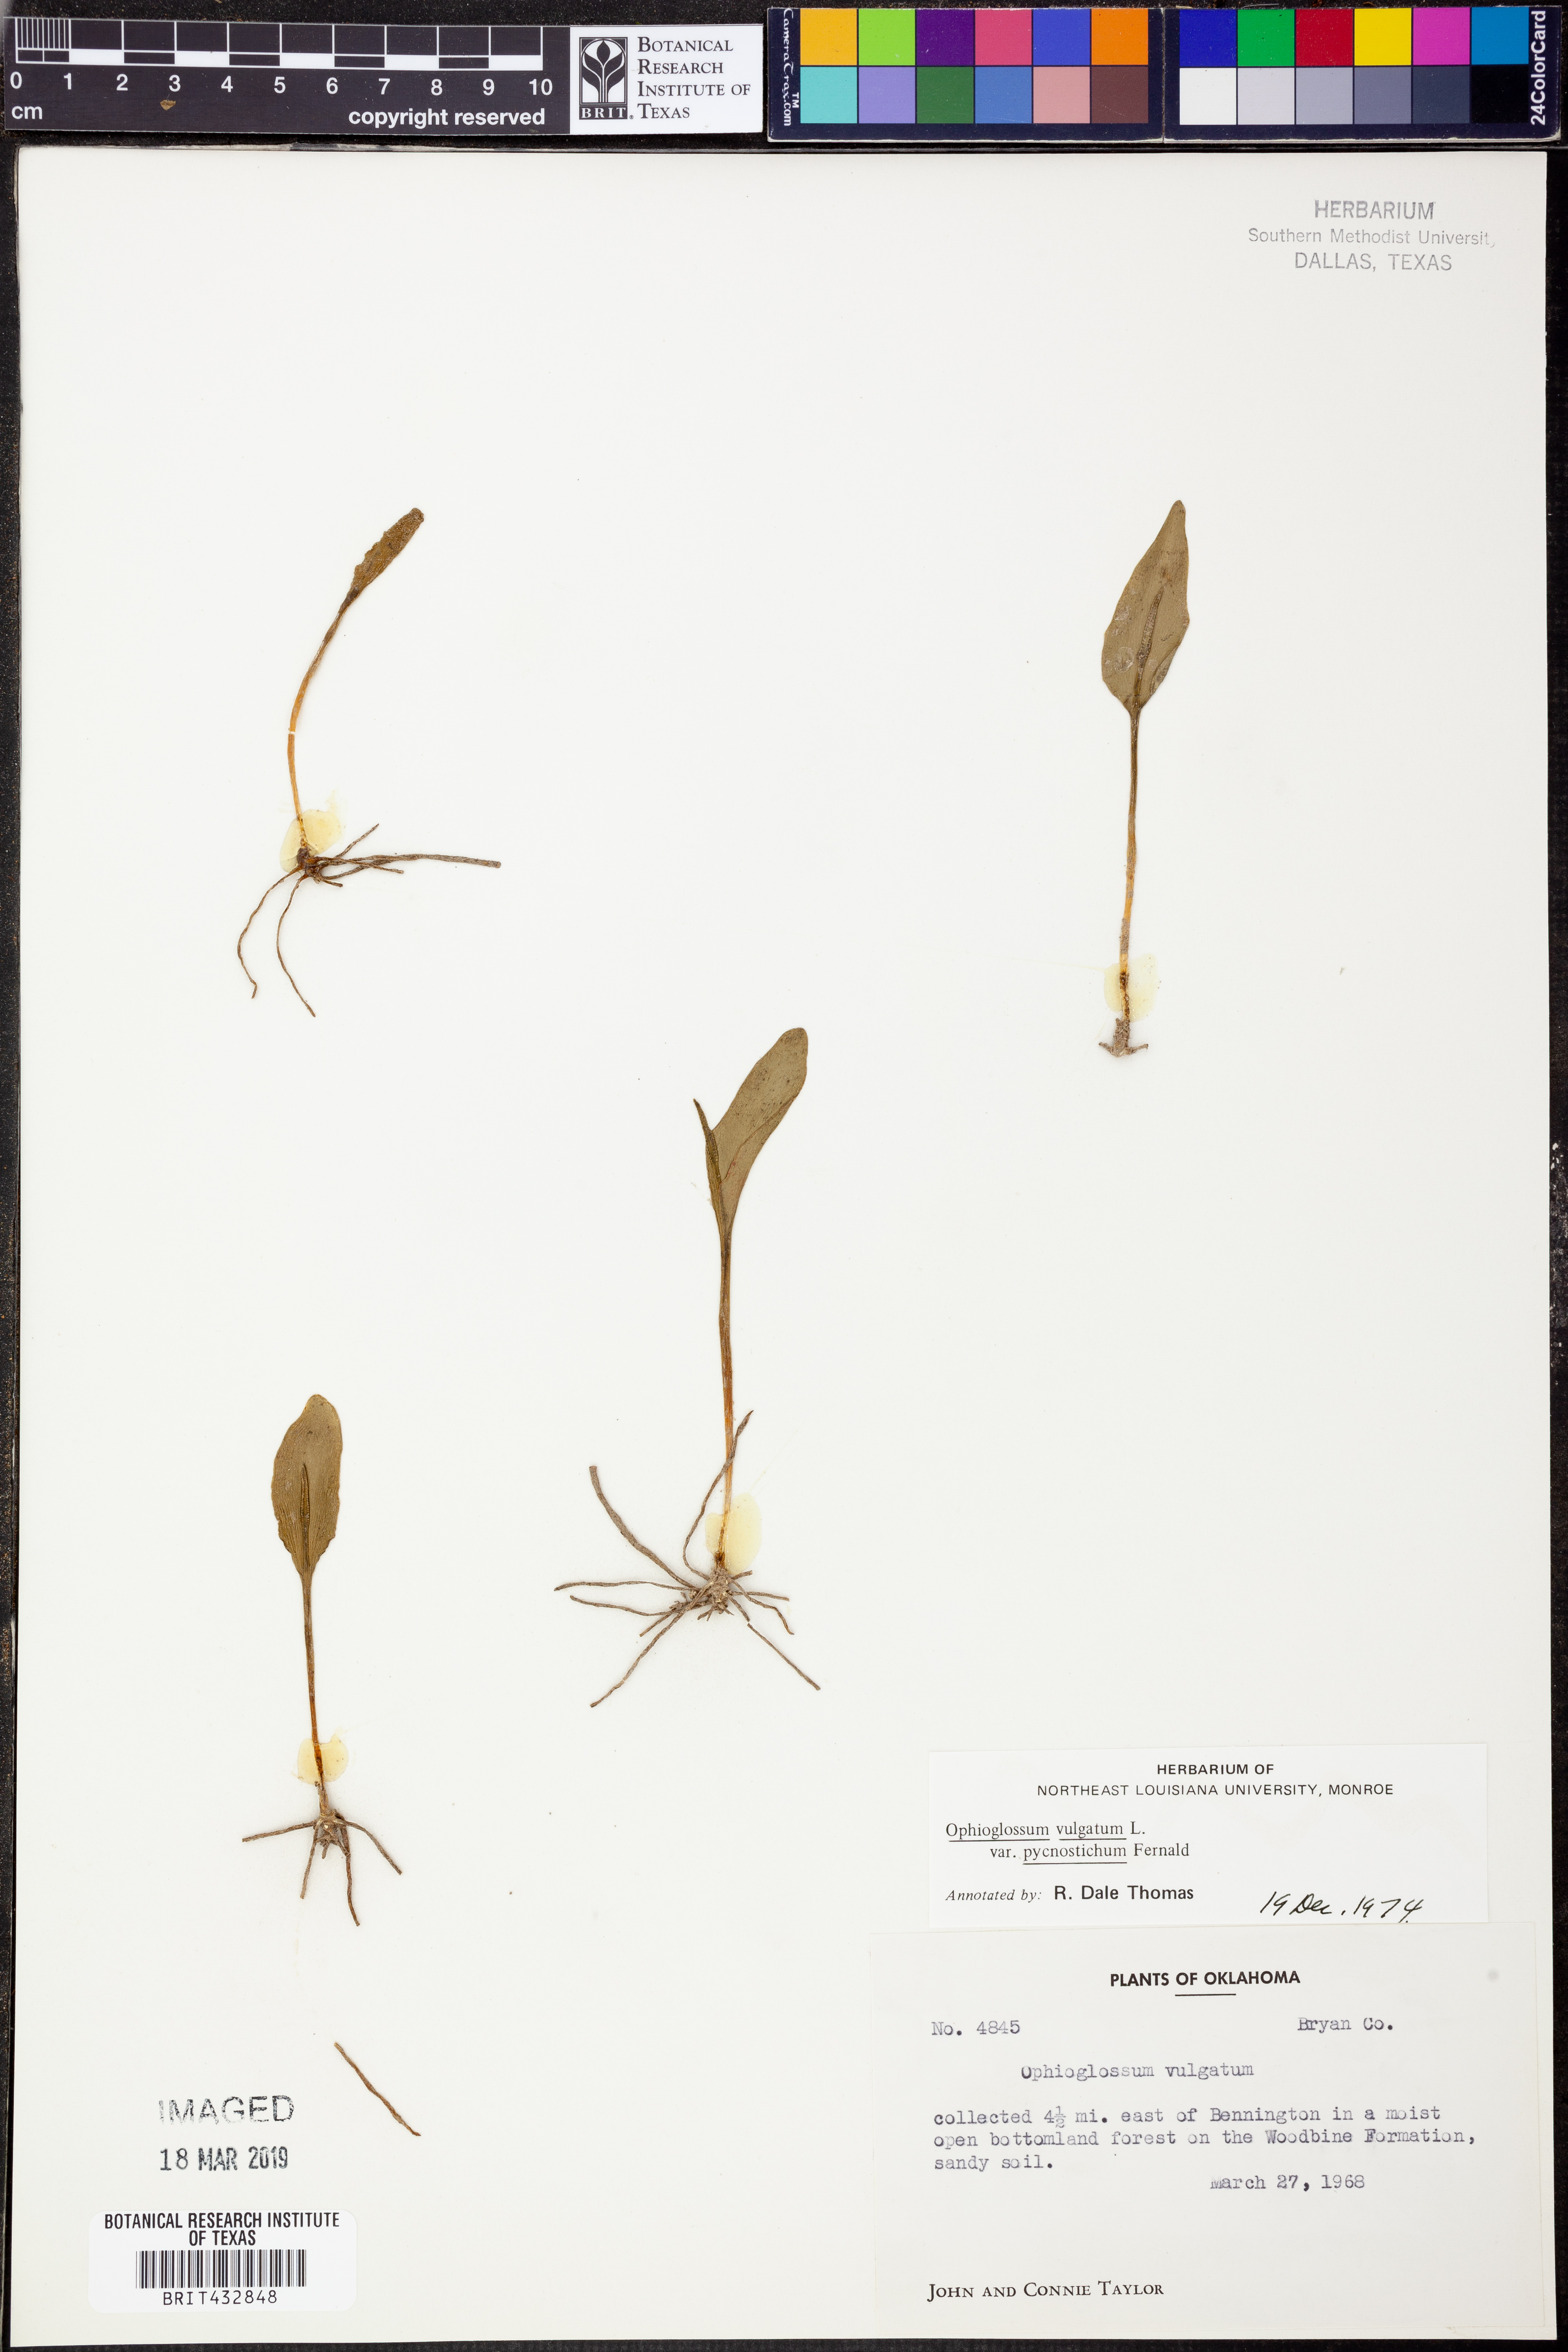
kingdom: Plantae
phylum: Tracheophyta
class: Polypodiopsida
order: Ophioglossales
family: Ophioglossaceae
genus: Ophioglossum
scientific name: Ophioglossum vulgatum
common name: Adder's-tongue
